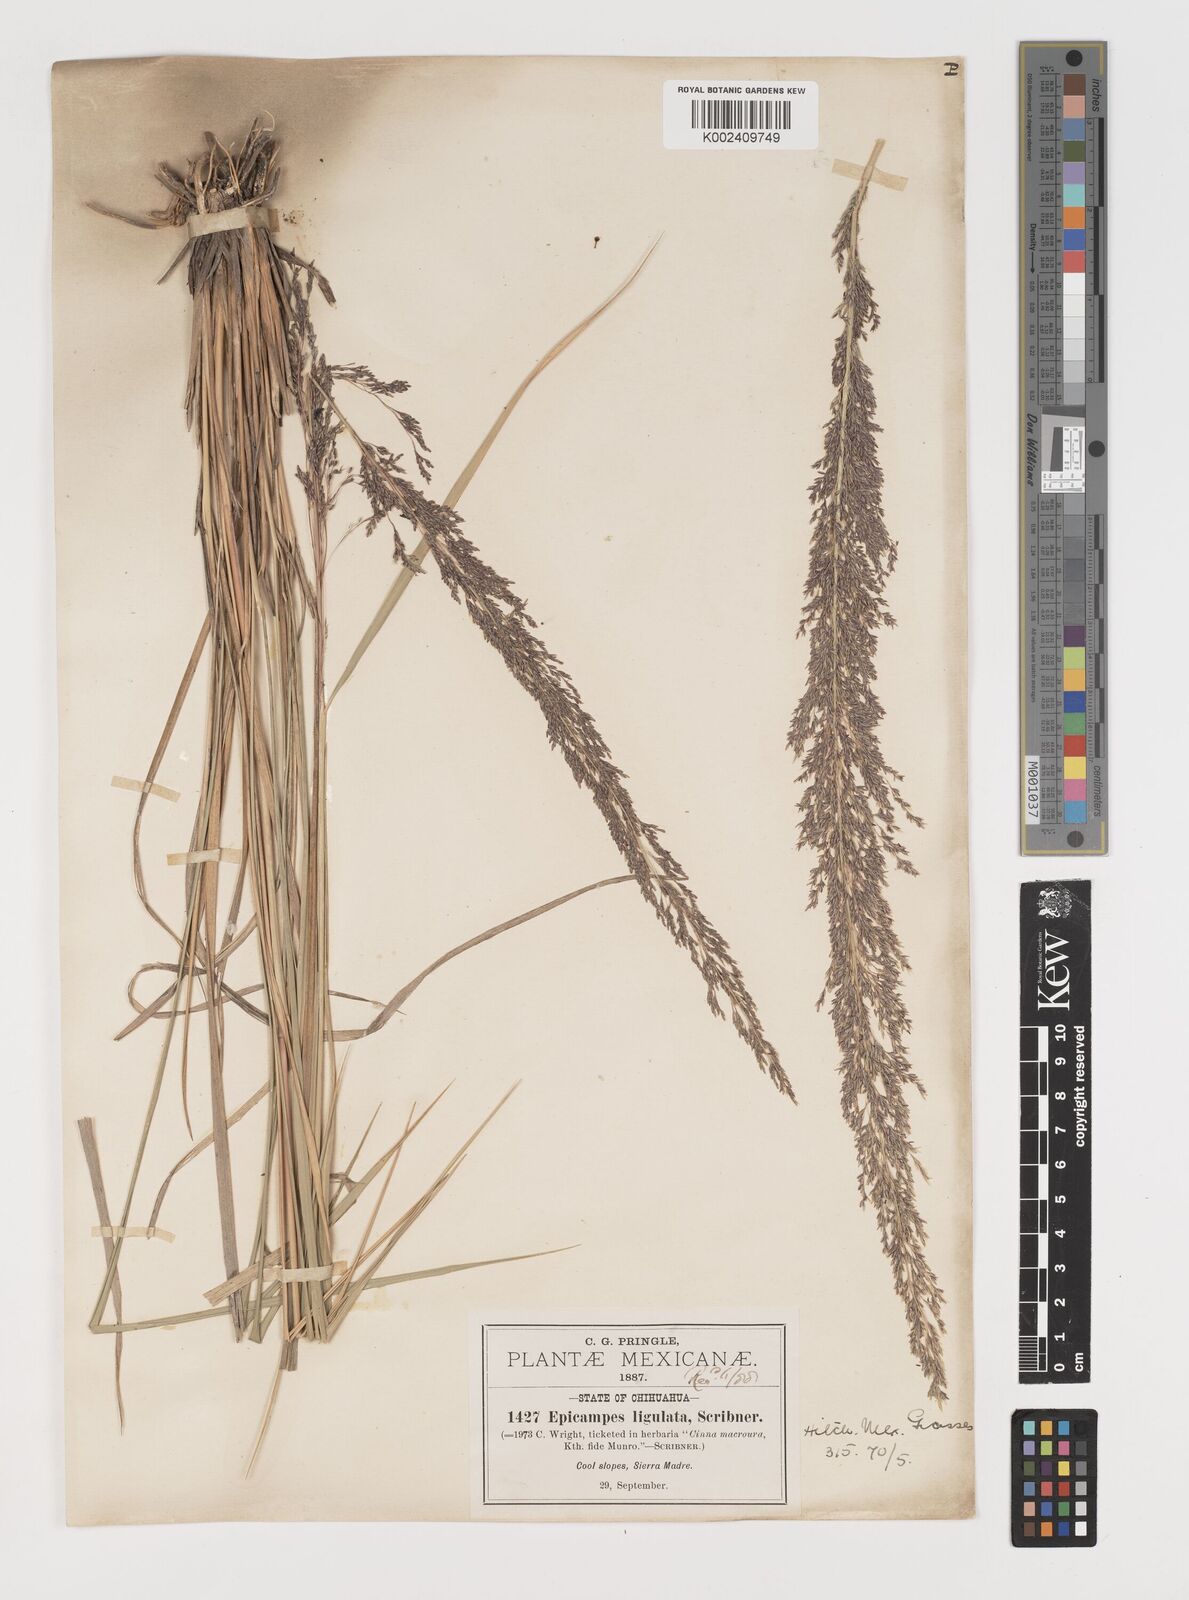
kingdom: Plantae
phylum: Tracheophyta
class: Liliopsida
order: Poales
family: Poaceae
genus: Muhlenbergia
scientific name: Muhlenbergia longiligula
